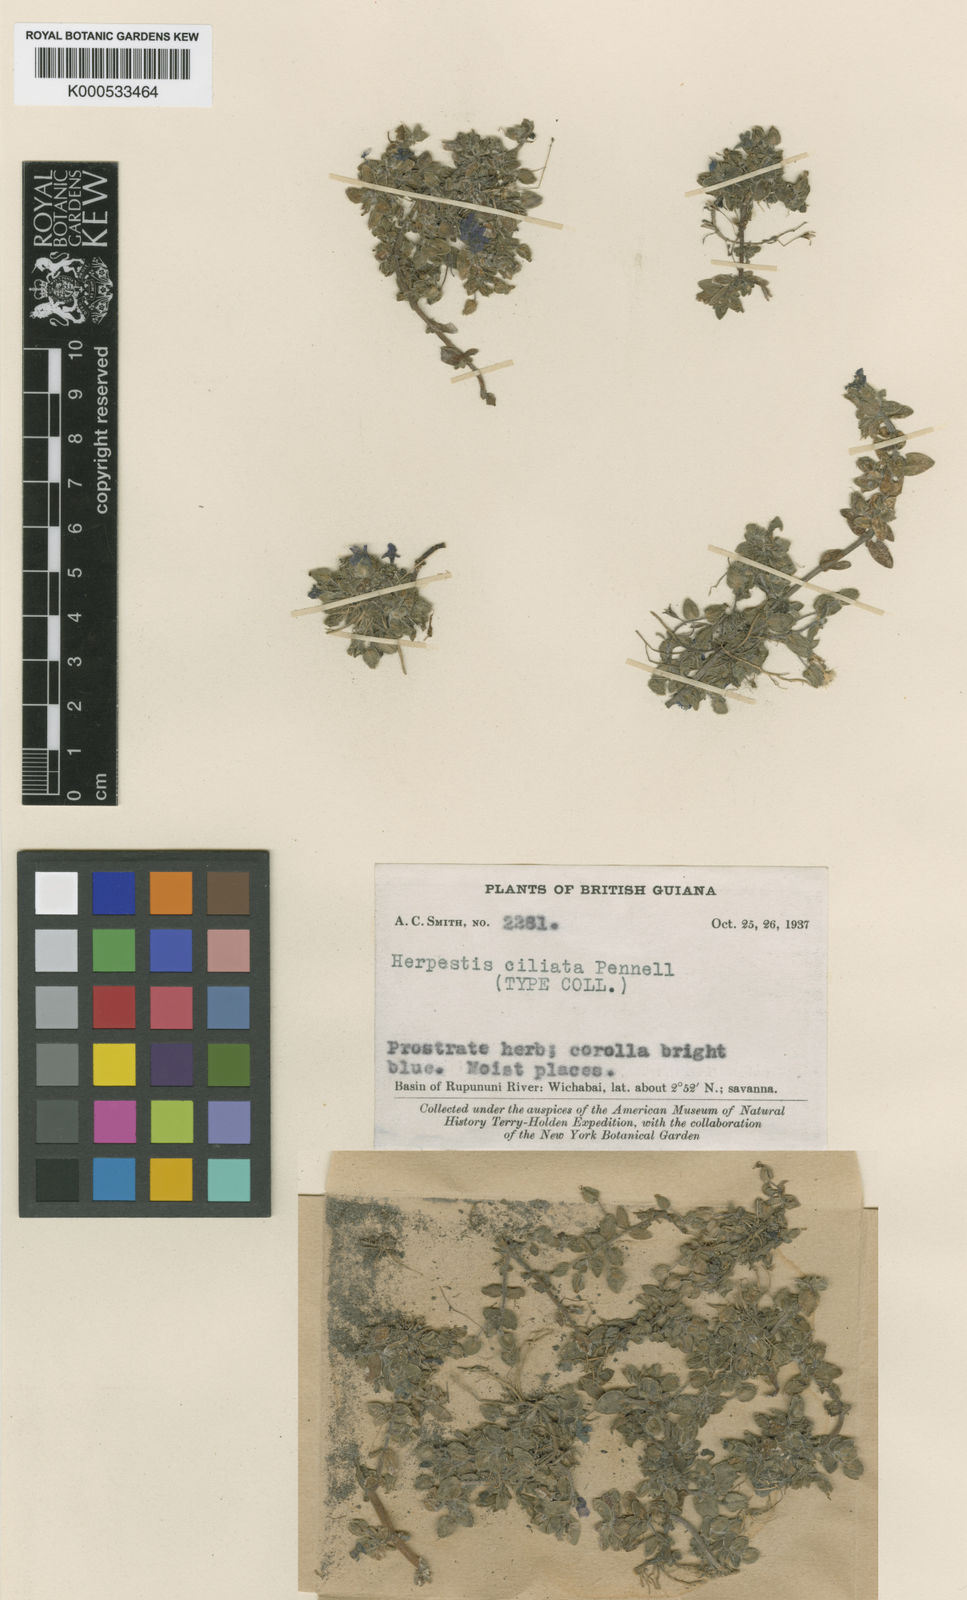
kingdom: Plantae
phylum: Tracheophyta
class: Magnoliopsida
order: Lamiales
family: Plantaginaceae
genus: Bacopa
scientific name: Bacopa serpyllifolia
